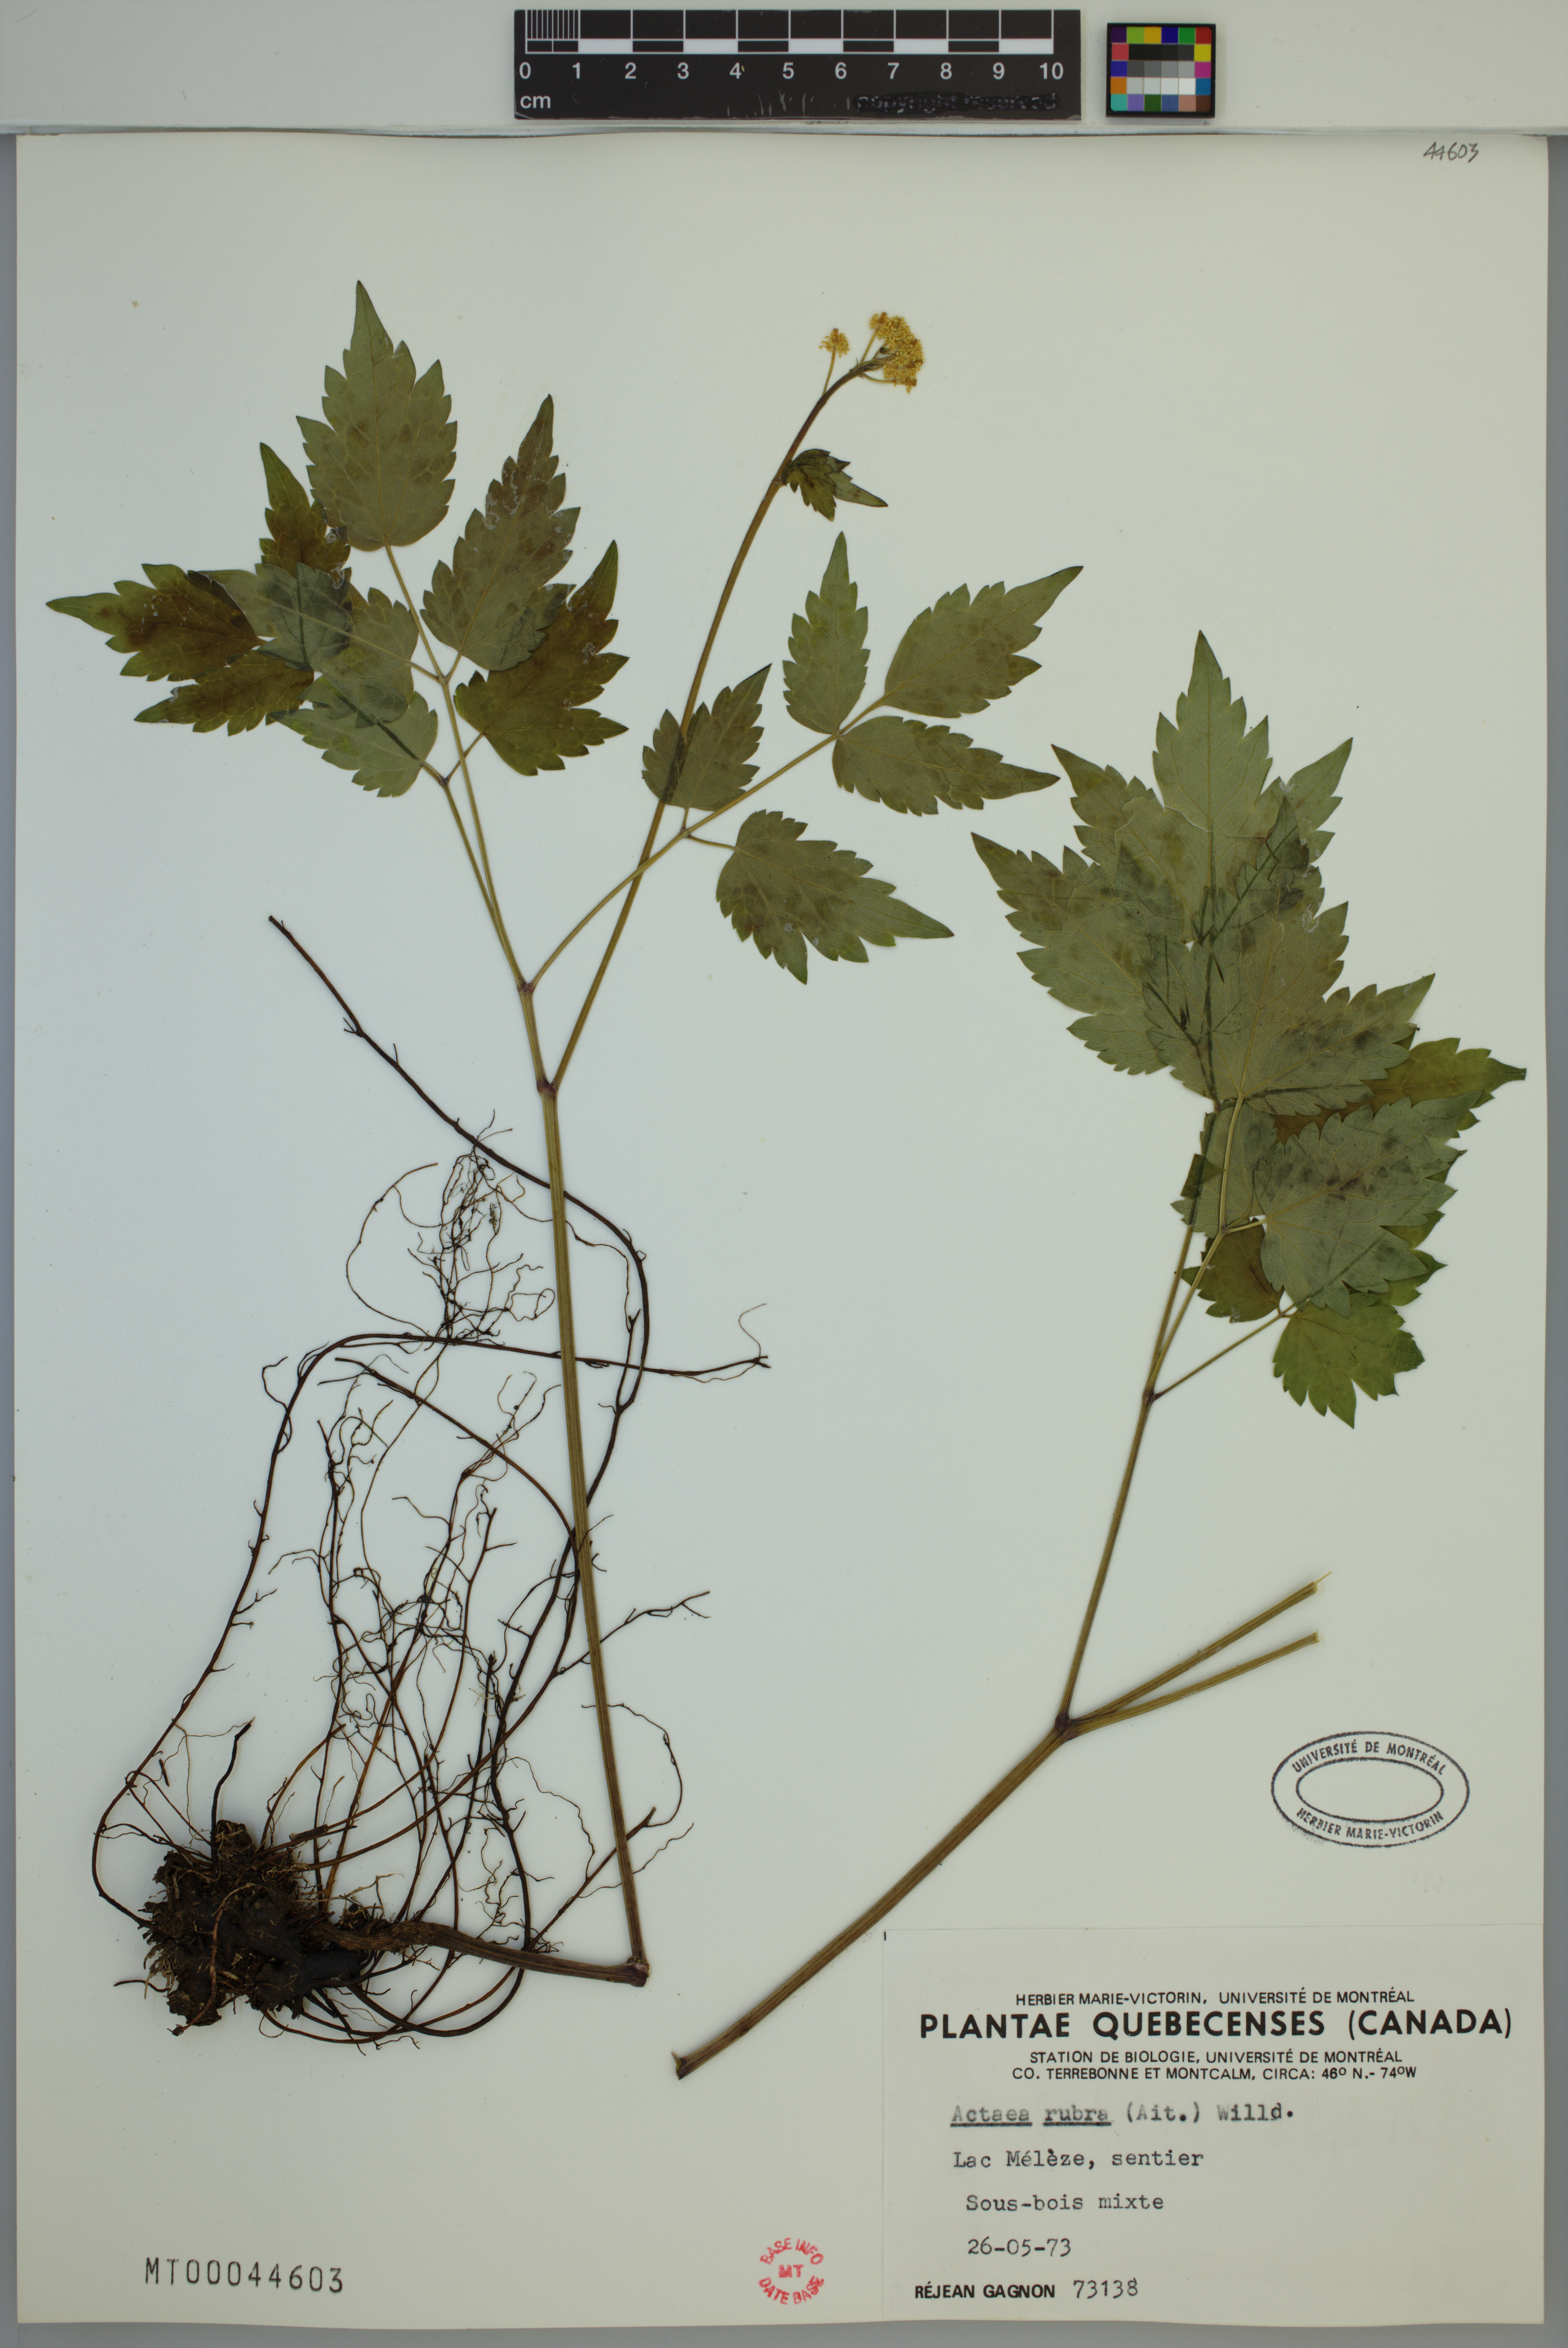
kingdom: Plantae
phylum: Tracheophyta
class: Magnoliopsida
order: Ranunculales
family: Ranunculaceae
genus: Actaea
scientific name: Actaea rubra
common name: Red baneberry
